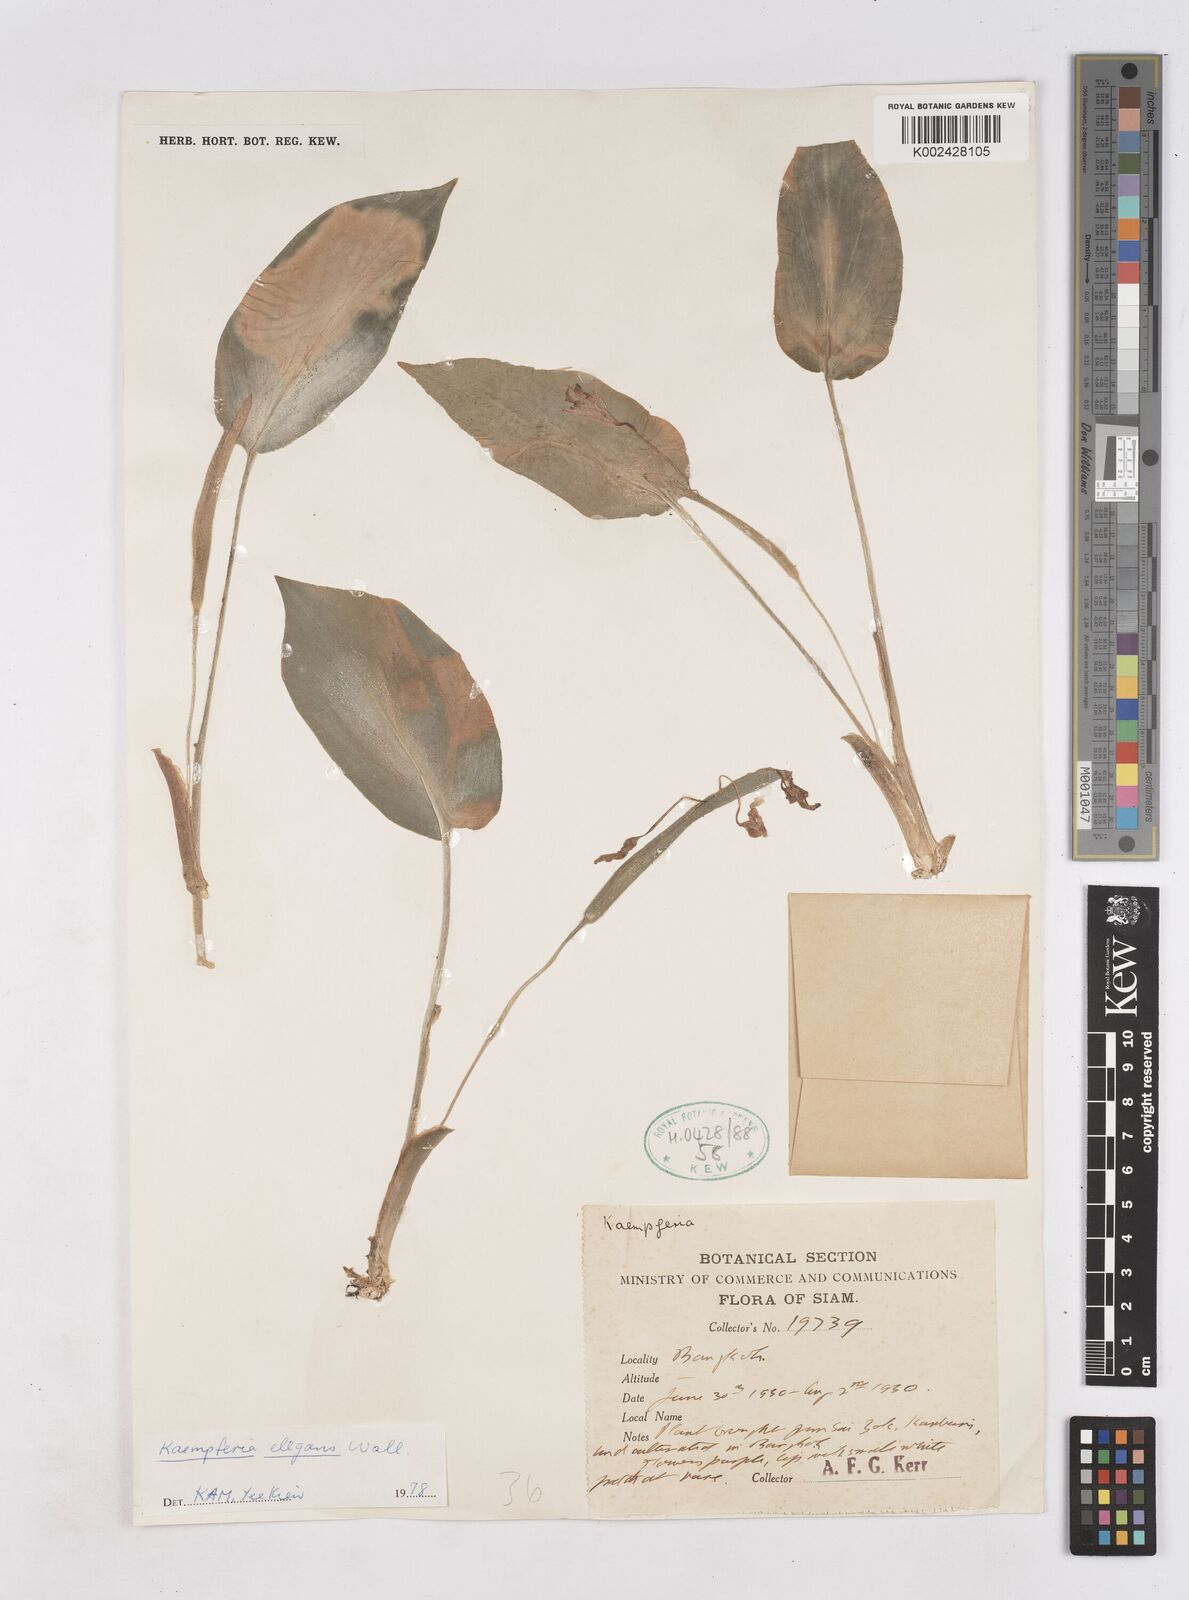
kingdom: Plantae
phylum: Tracheophyta
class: Liliopsida
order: Zingiberales
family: Zingiberaceae
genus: Kaempferia
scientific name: Kaempferia elegans
